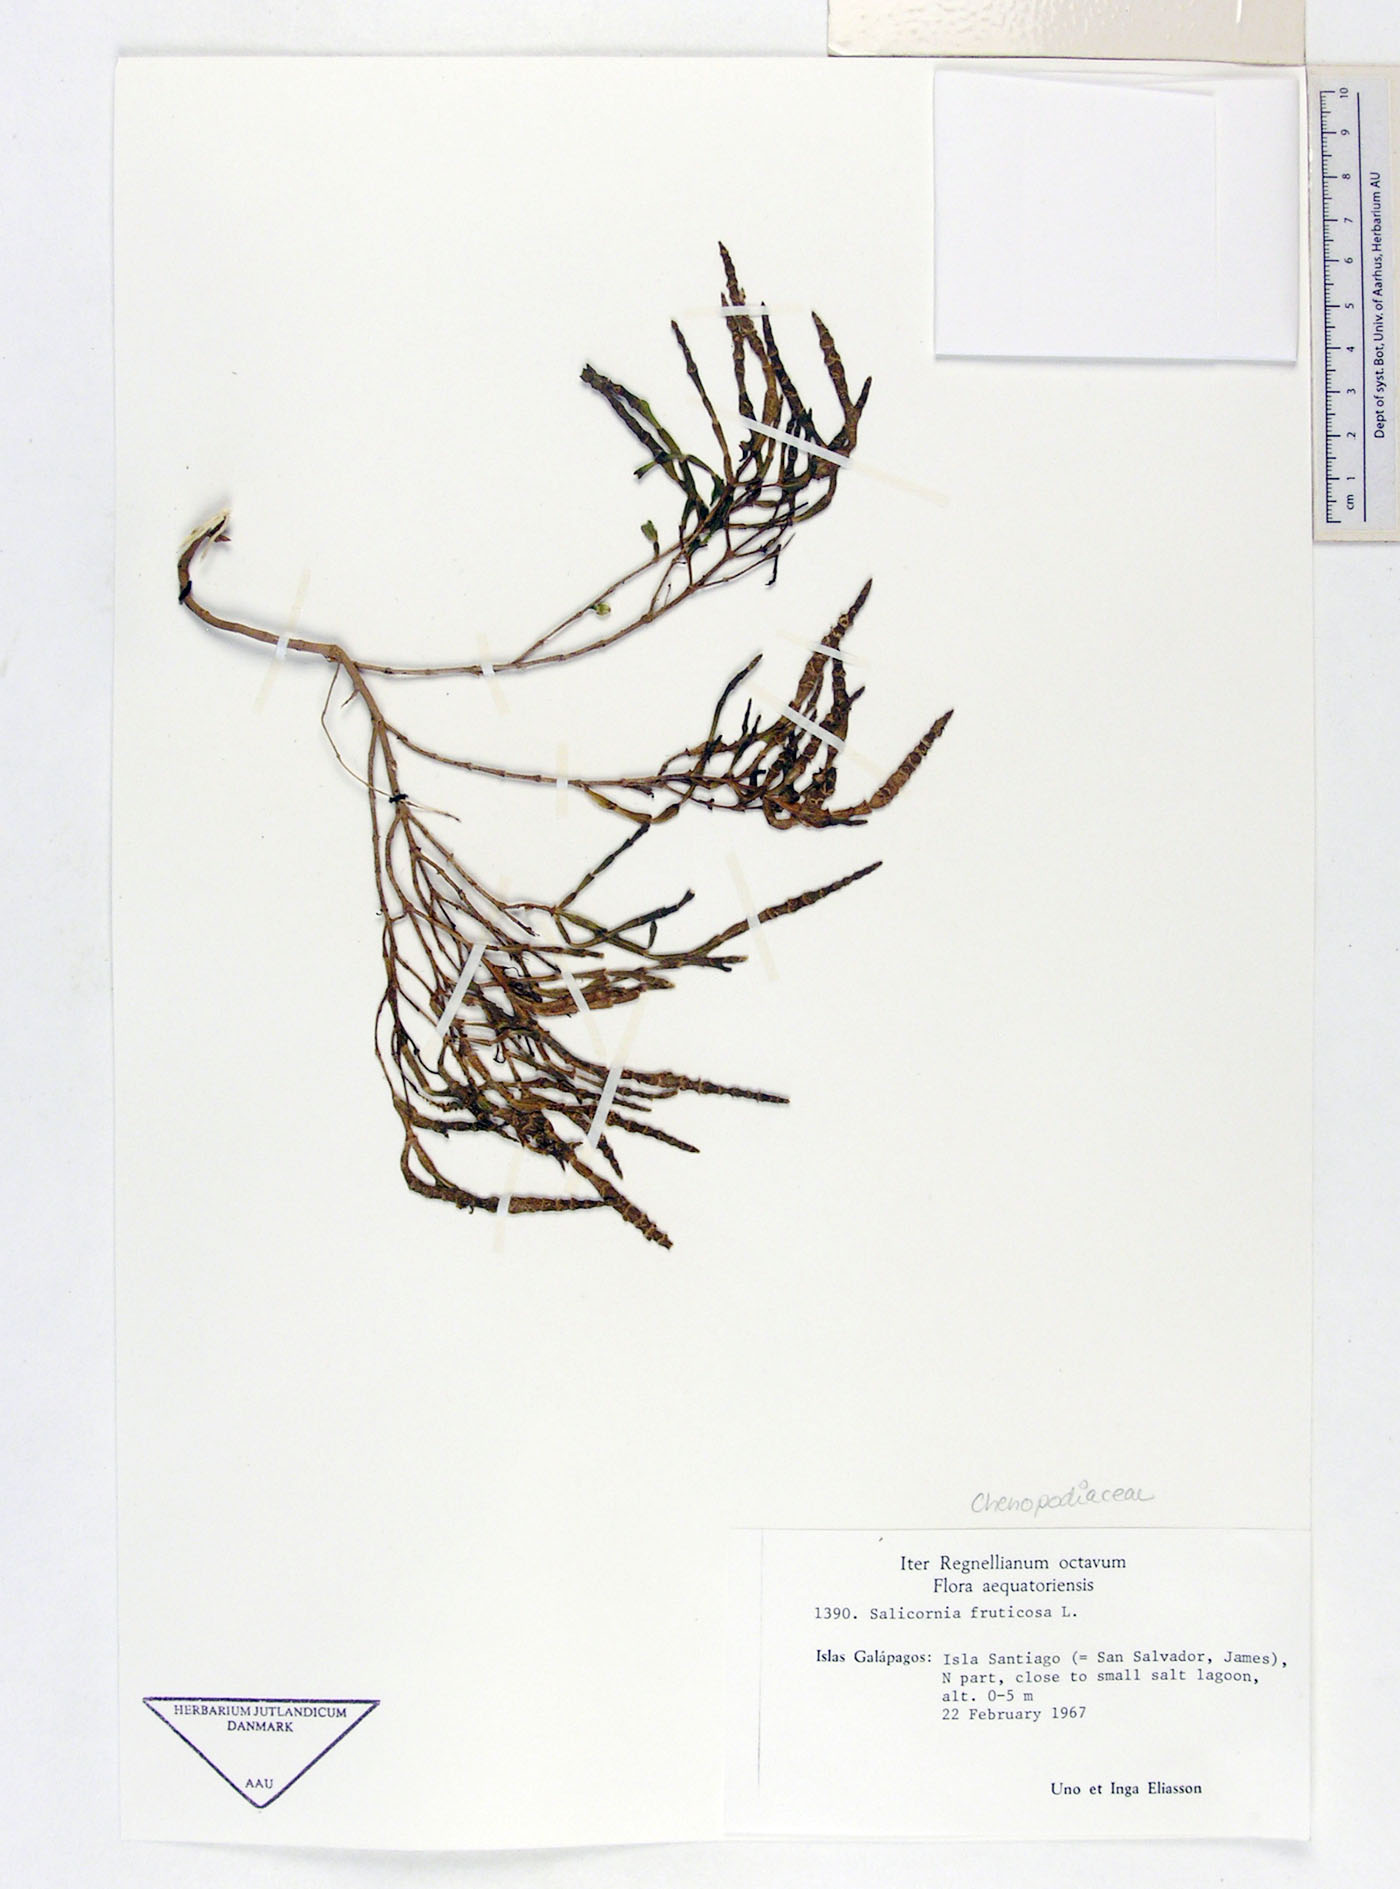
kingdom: Plantae
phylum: Tracheophyta
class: Magnoliopsida
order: Caryophyllales
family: Amaranthaceae
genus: Salicornia
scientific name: Salicornia
